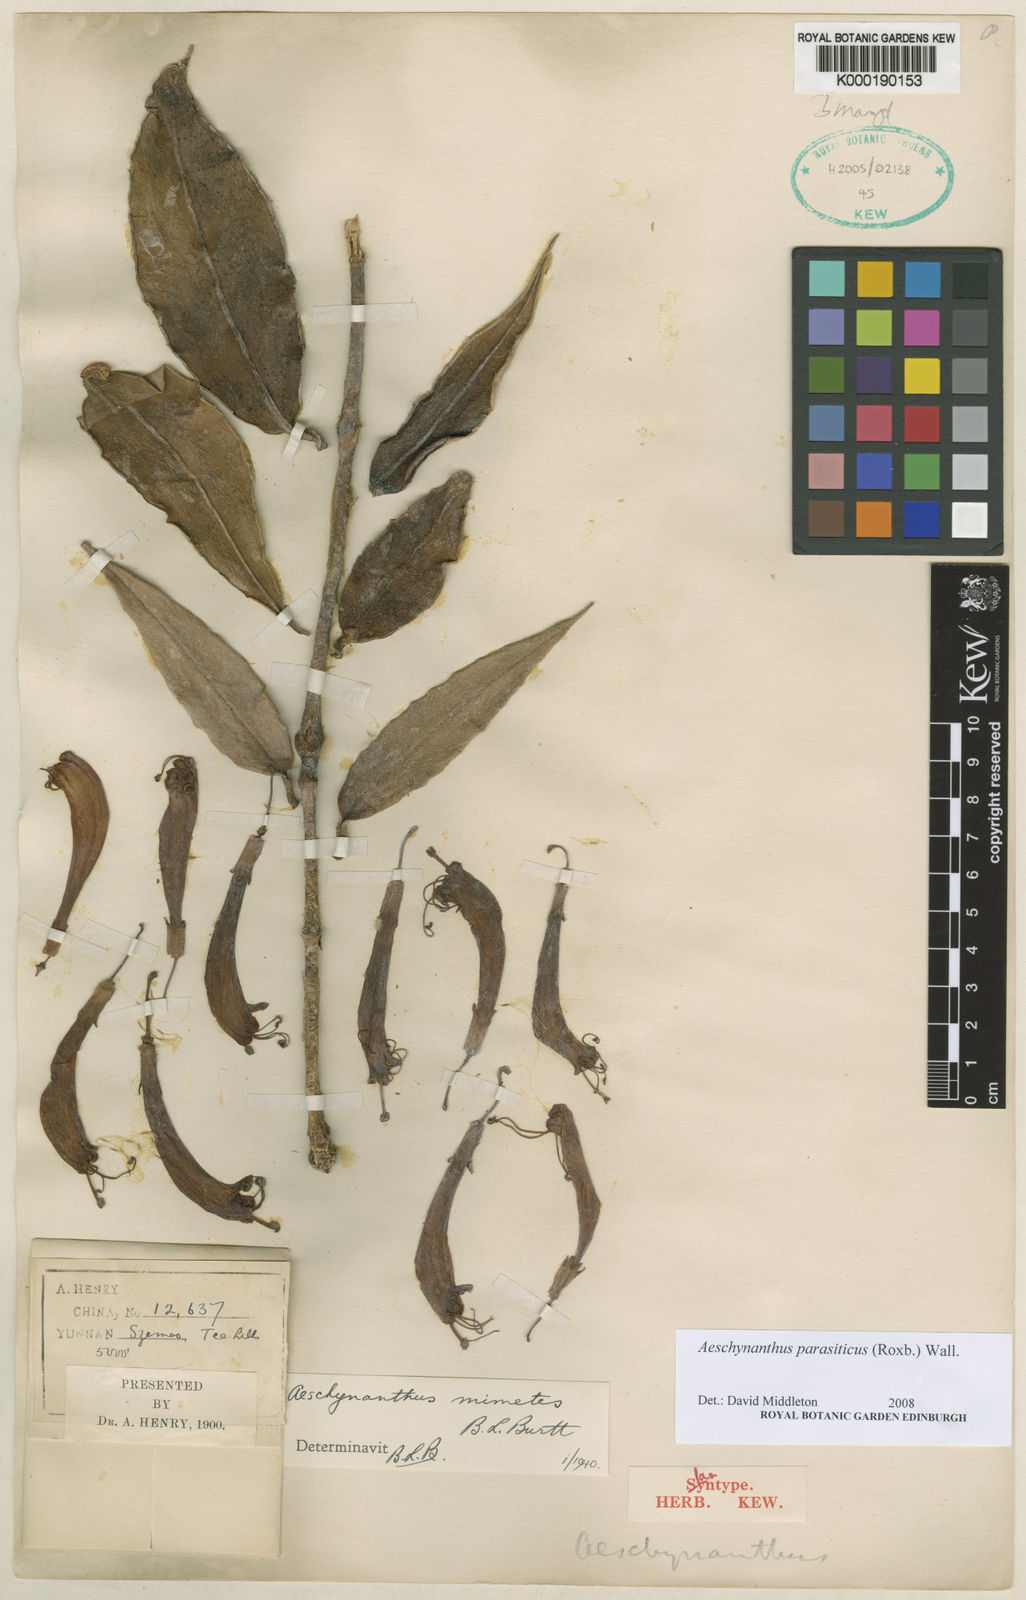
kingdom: Plantae
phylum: Tracheophyta
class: Magnoliopsida
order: Lamiales
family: Gesneriaceae
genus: Aeschynanthus
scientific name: Aeschynanthus parasiticus
